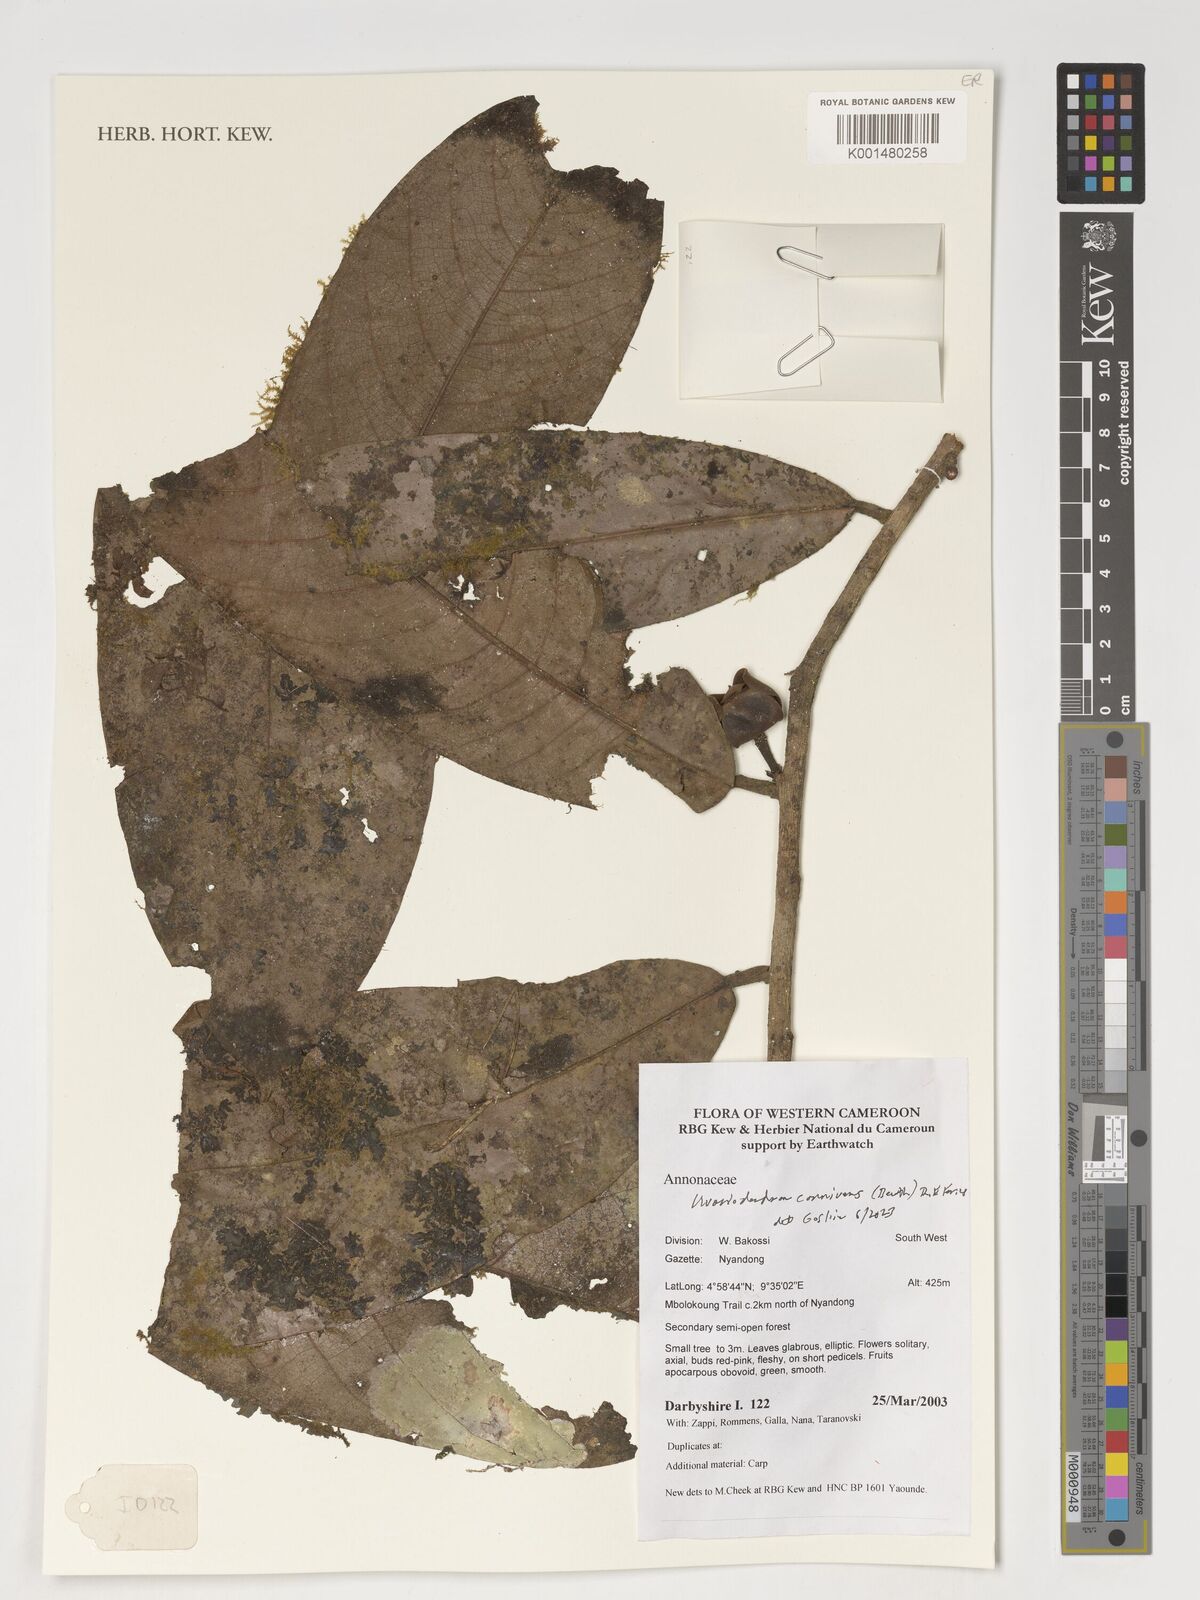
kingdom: Plantae
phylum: Tracheophyta
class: Magnoliopsida
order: Magnoliales
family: Annonaceae
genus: Uvariodendron
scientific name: Uvariodendron connivens
